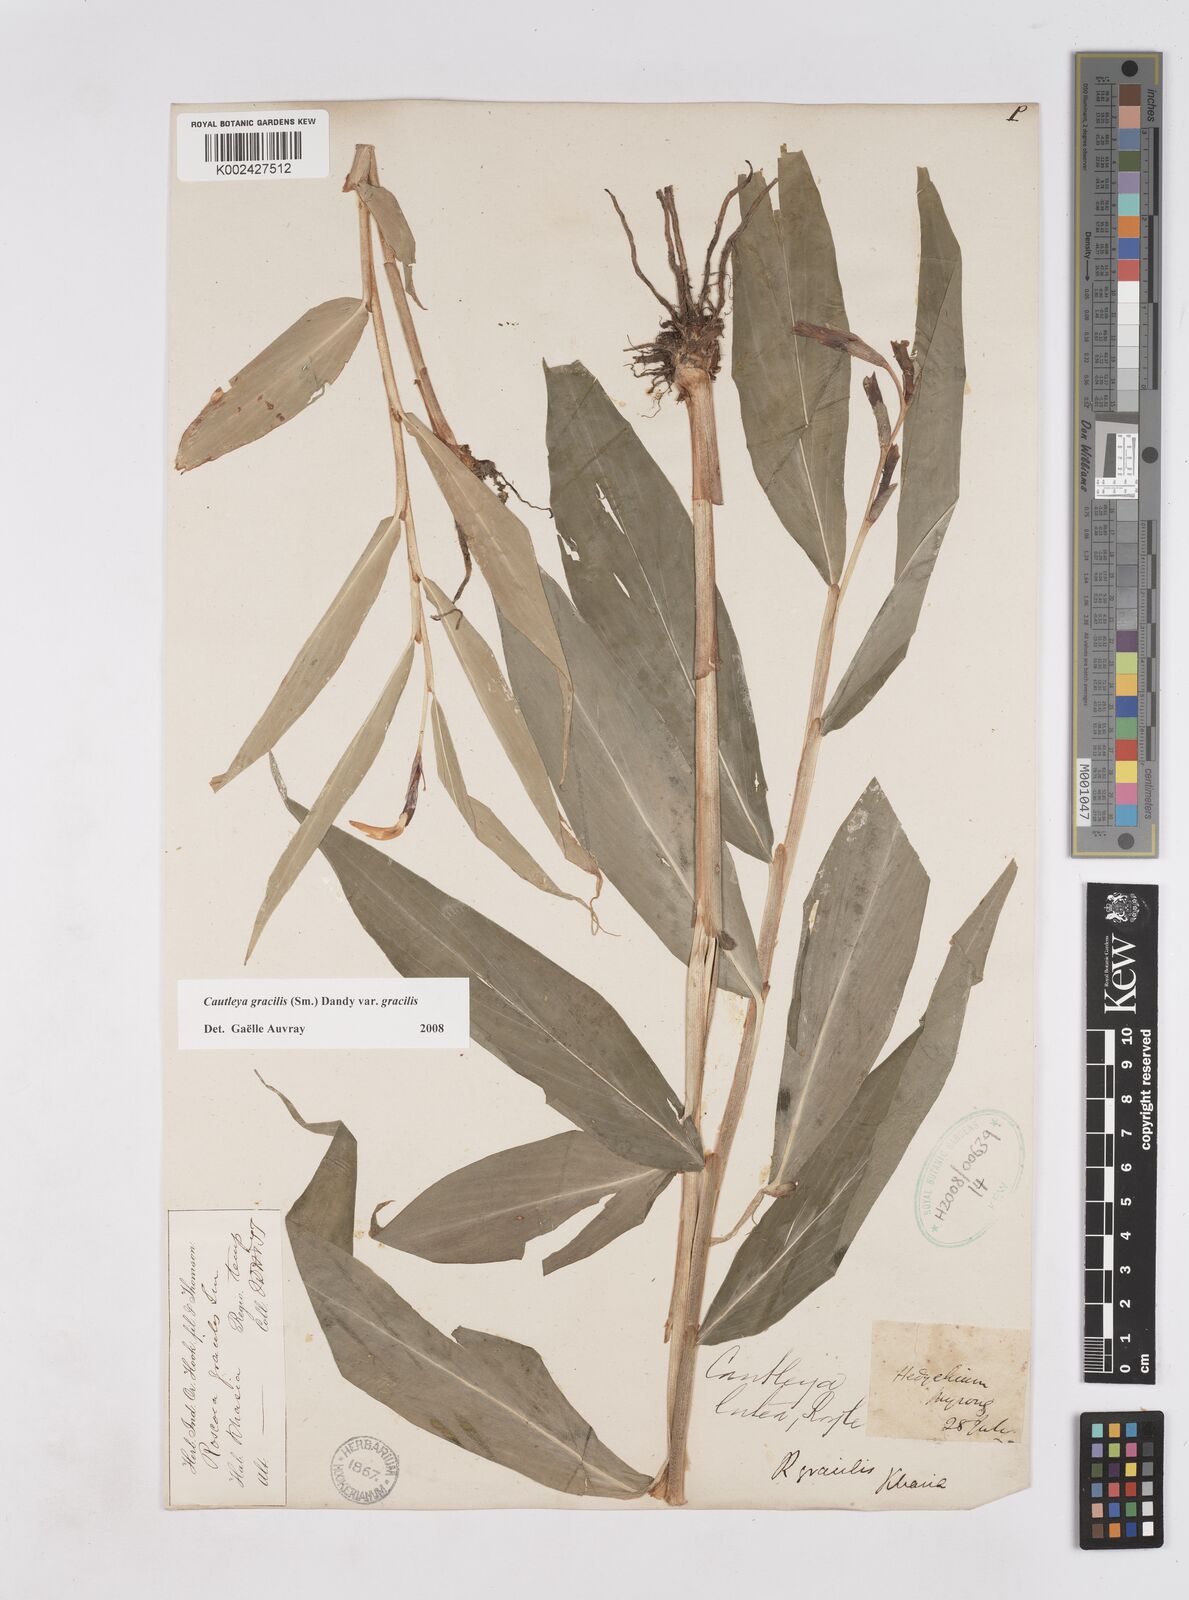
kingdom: Plantae
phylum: Tracheophyta
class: Liliopsida
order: Zingiberales
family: Zingiberaceae
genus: Cautleya
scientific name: Cautleya gracilis
